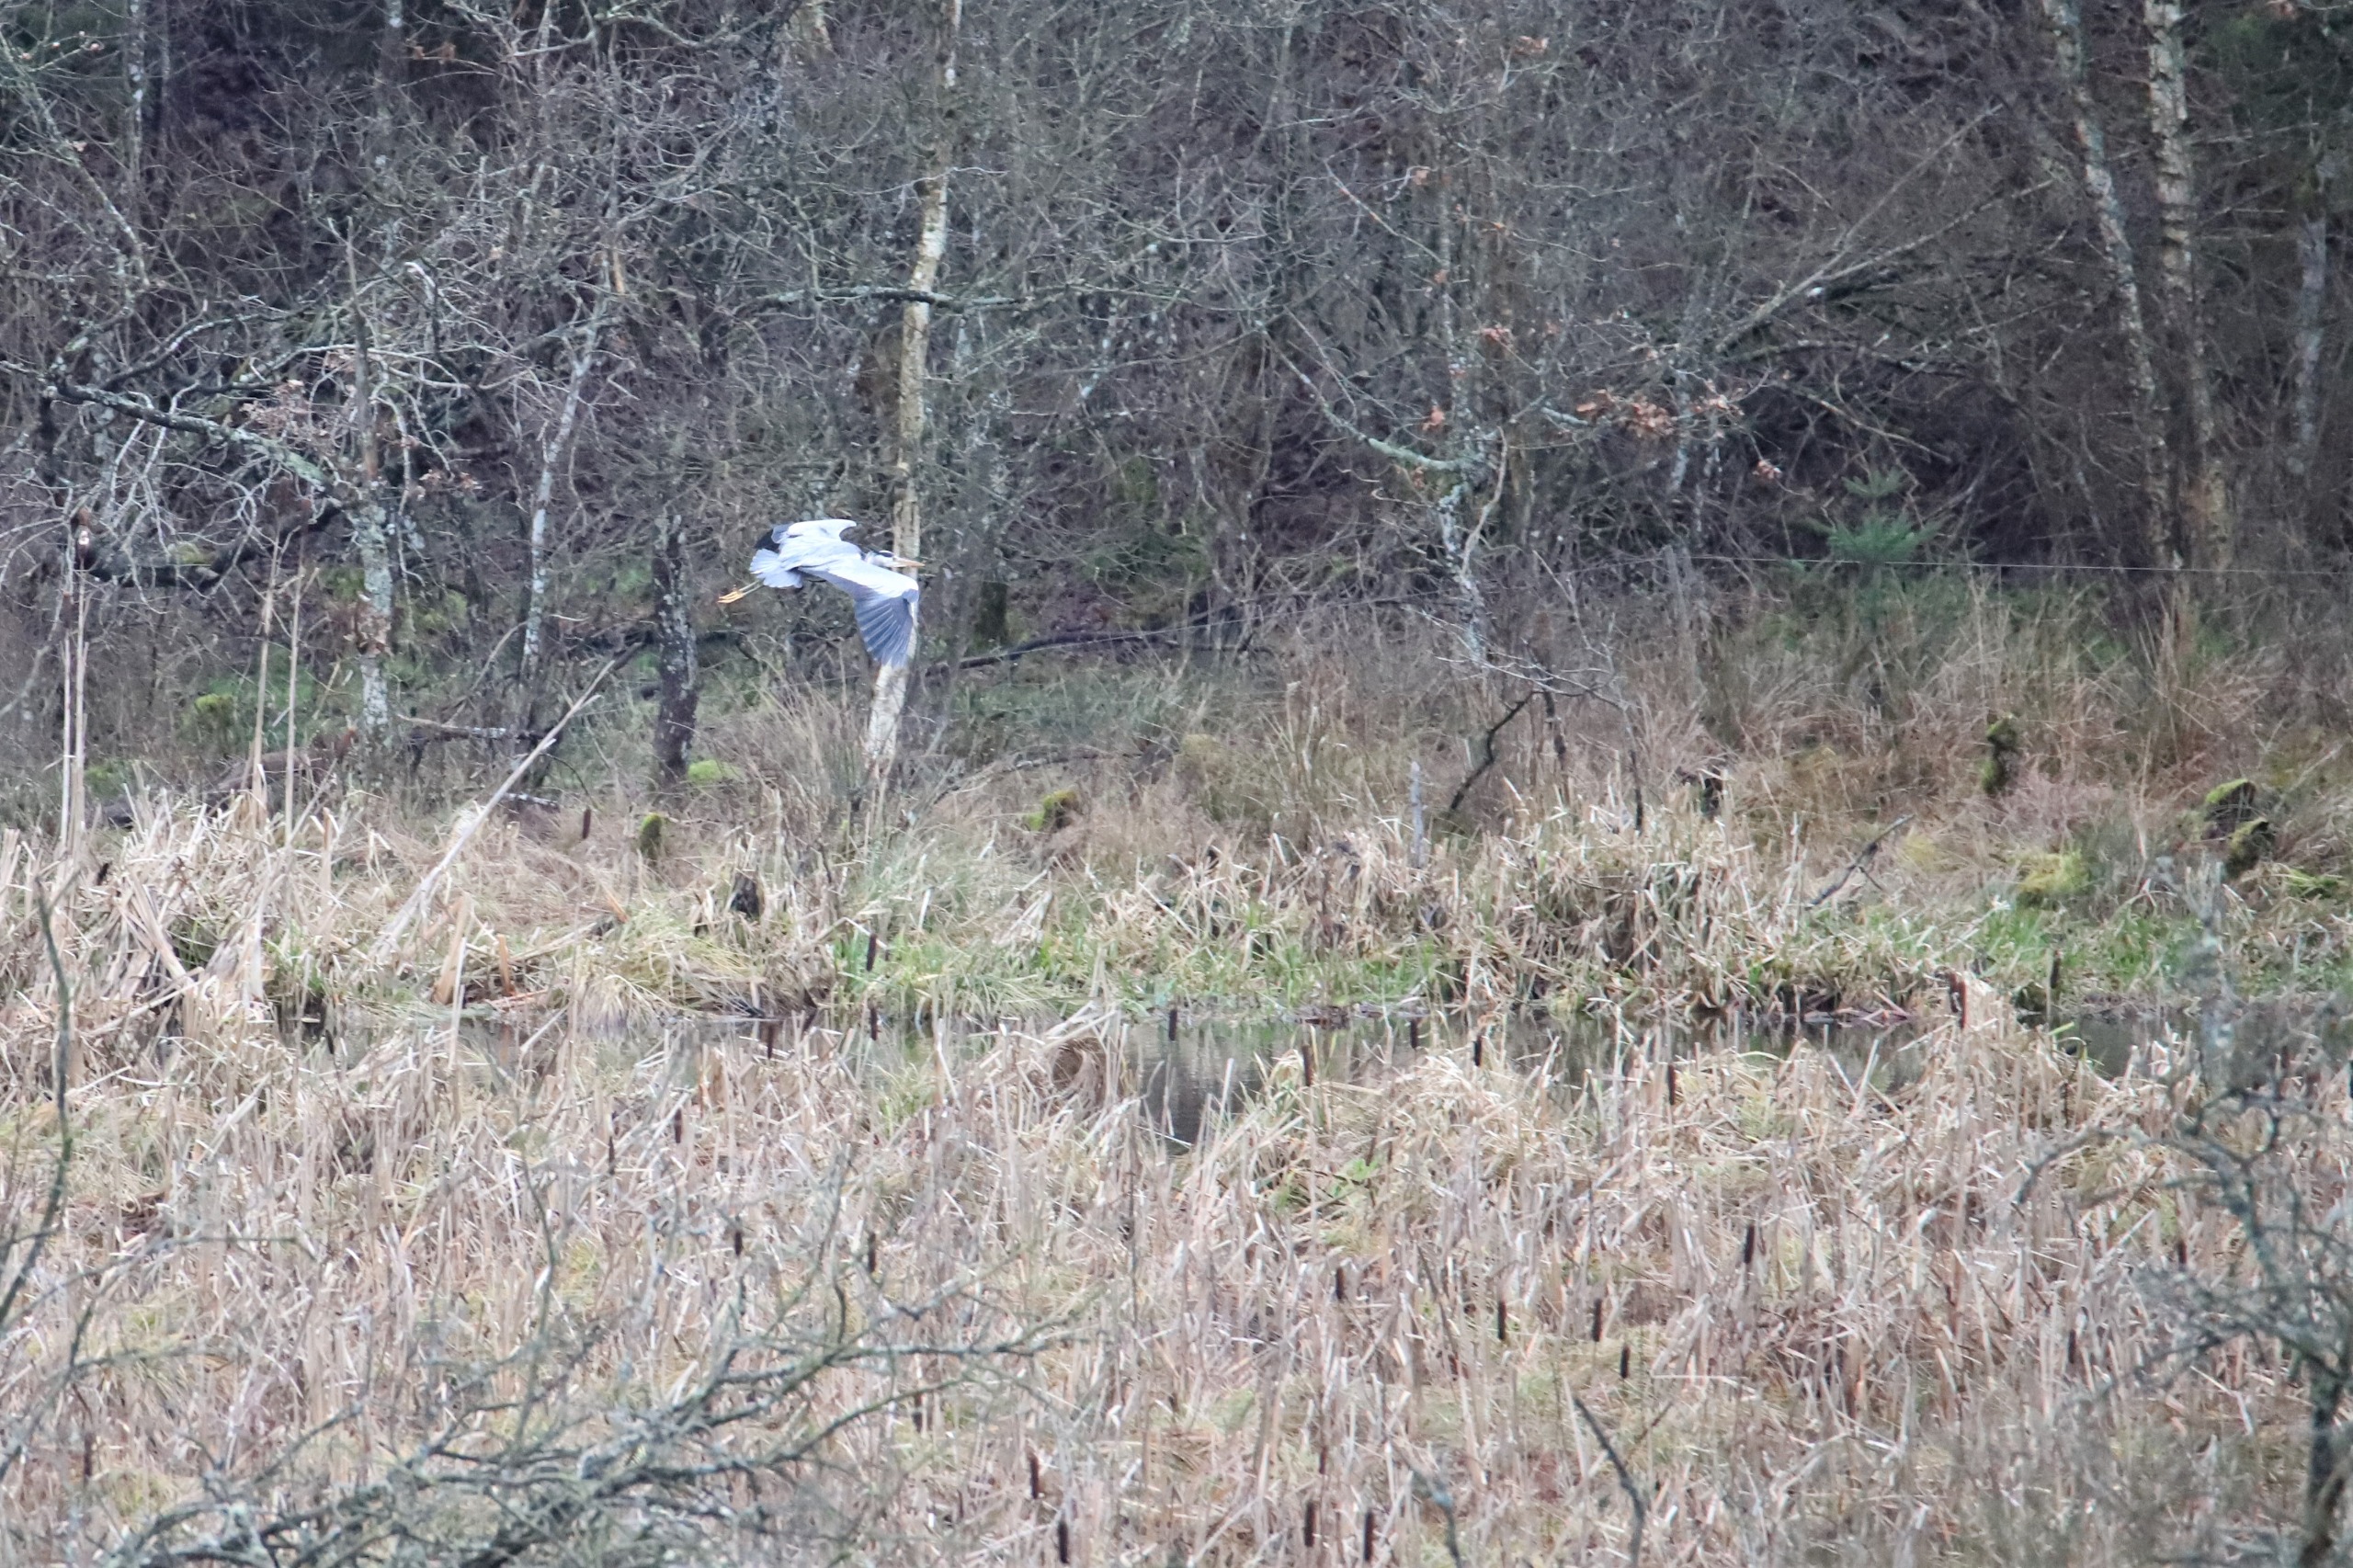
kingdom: Animalia
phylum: Chordata
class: Aves
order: Pelecaniformes
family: Ardeidae
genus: Ardea
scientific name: Ardea cinerea
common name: Fiskehejre
